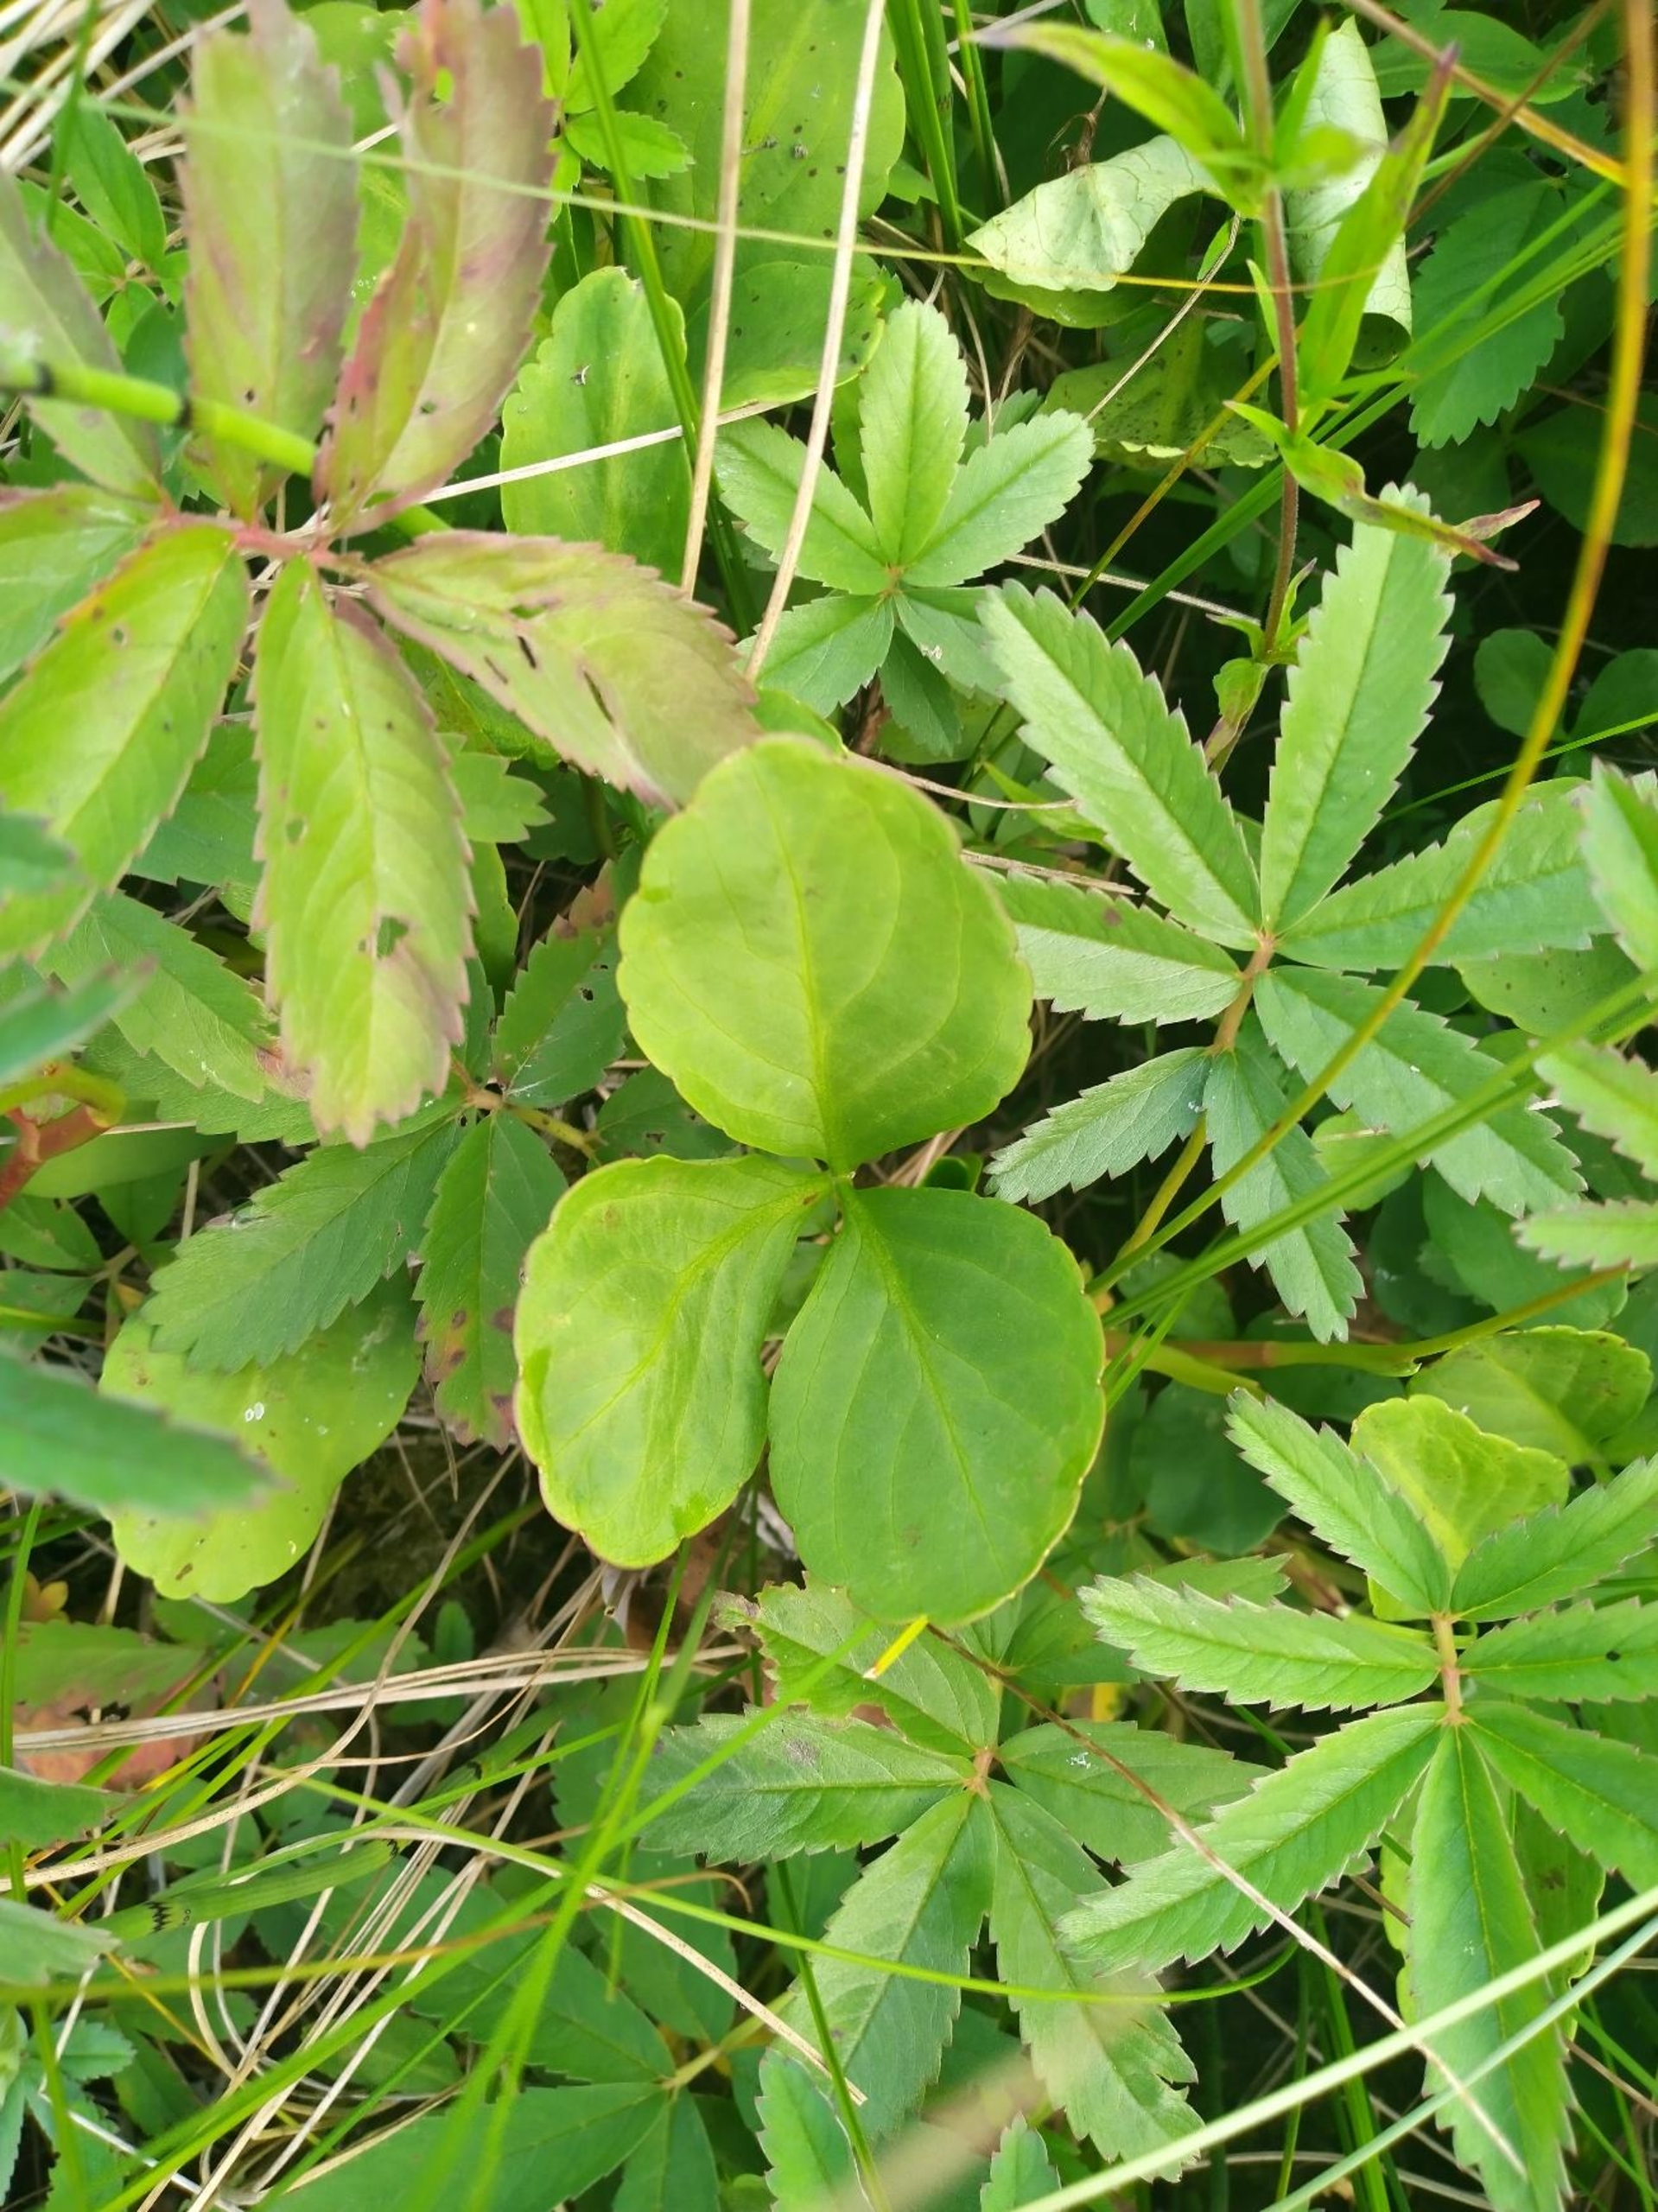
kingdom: Plantae
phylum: Tracheophyta
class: Magnoliopsida
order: Asterales
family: Menyanthaceae
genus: Menyanthes
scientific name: Menyanthes trifoliata
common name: Bukkeblad
